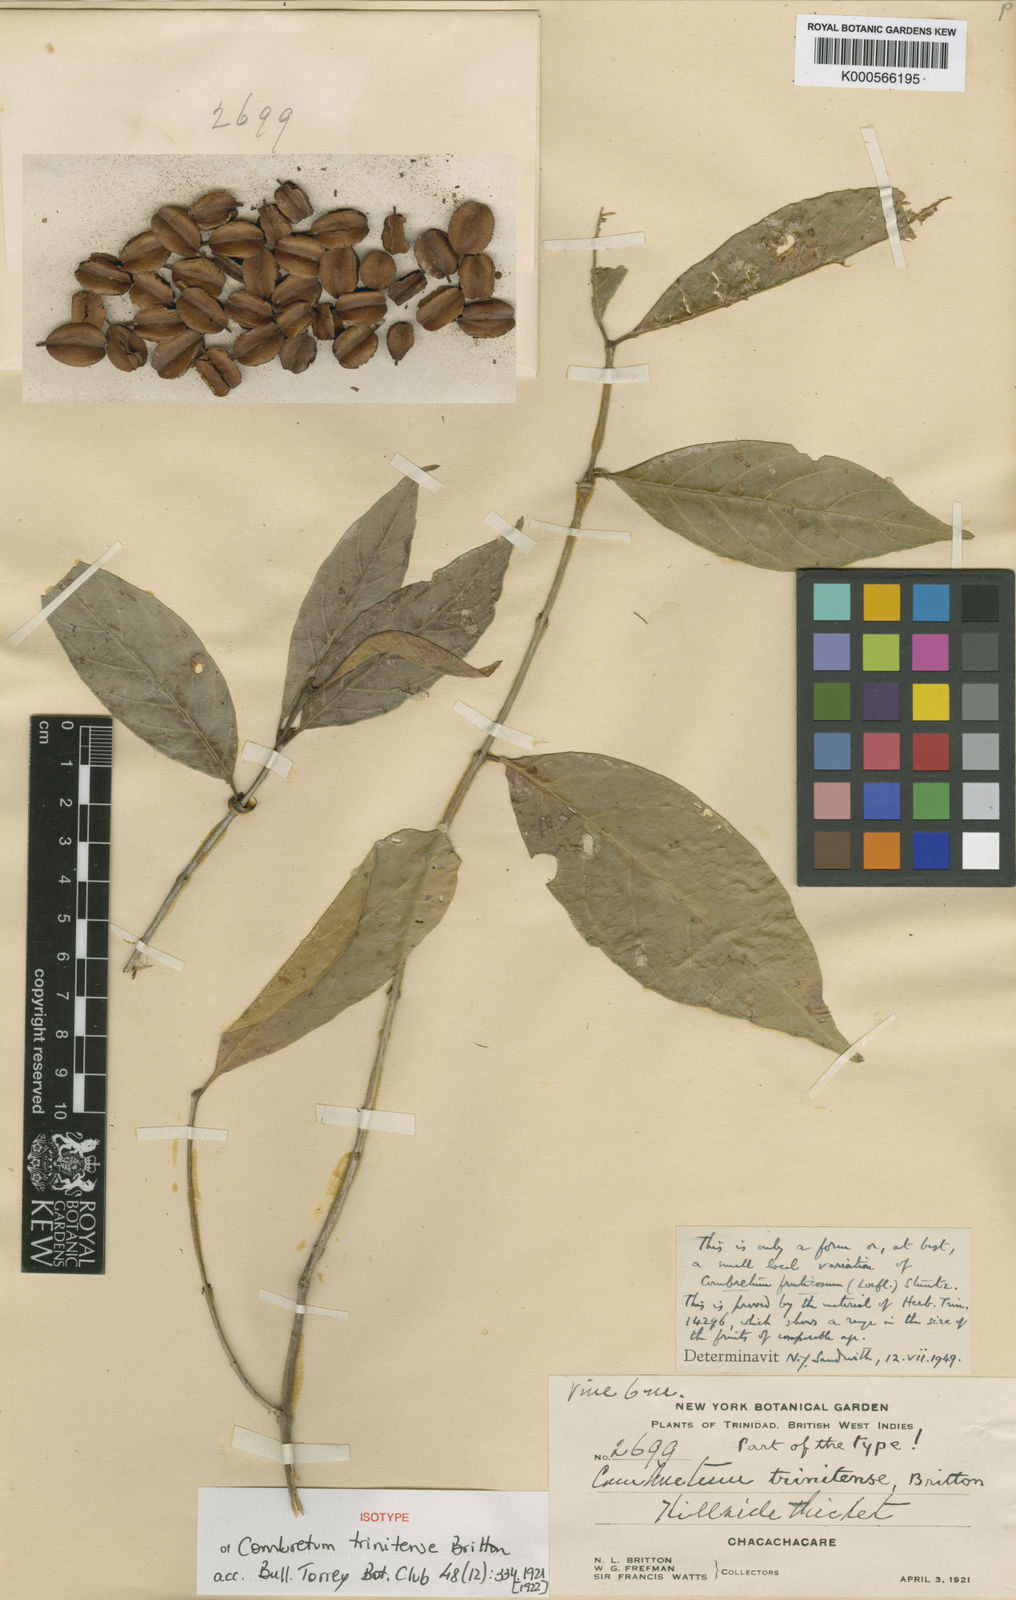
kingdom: Plantae
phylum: Tracheophyta
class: Magnoliopsida
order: Myrtales
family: Combretaceae
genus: Combretum
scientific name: Combretum fruticosum
